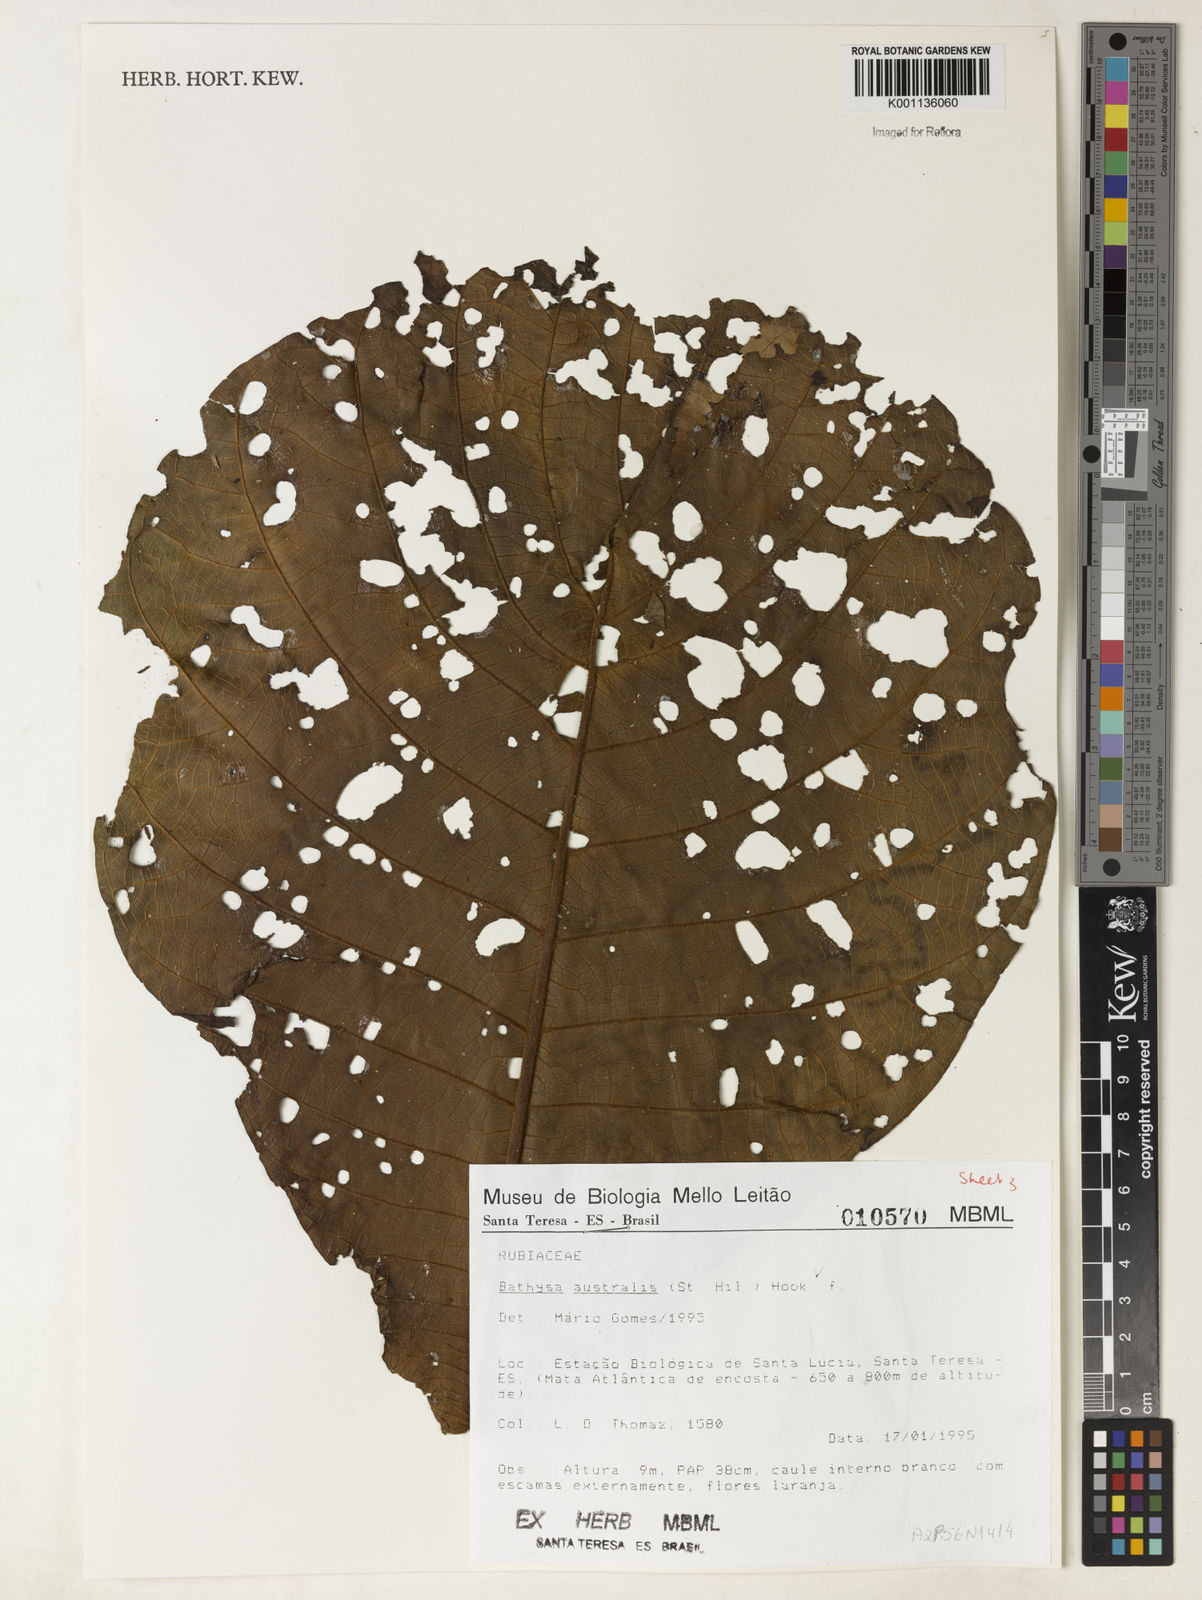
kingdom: Plantae
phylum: Tracheophyta
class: Magnoliopsida
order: Gentianales
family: Rubiaceae
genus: Bathysa
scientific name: Bathysa australis
